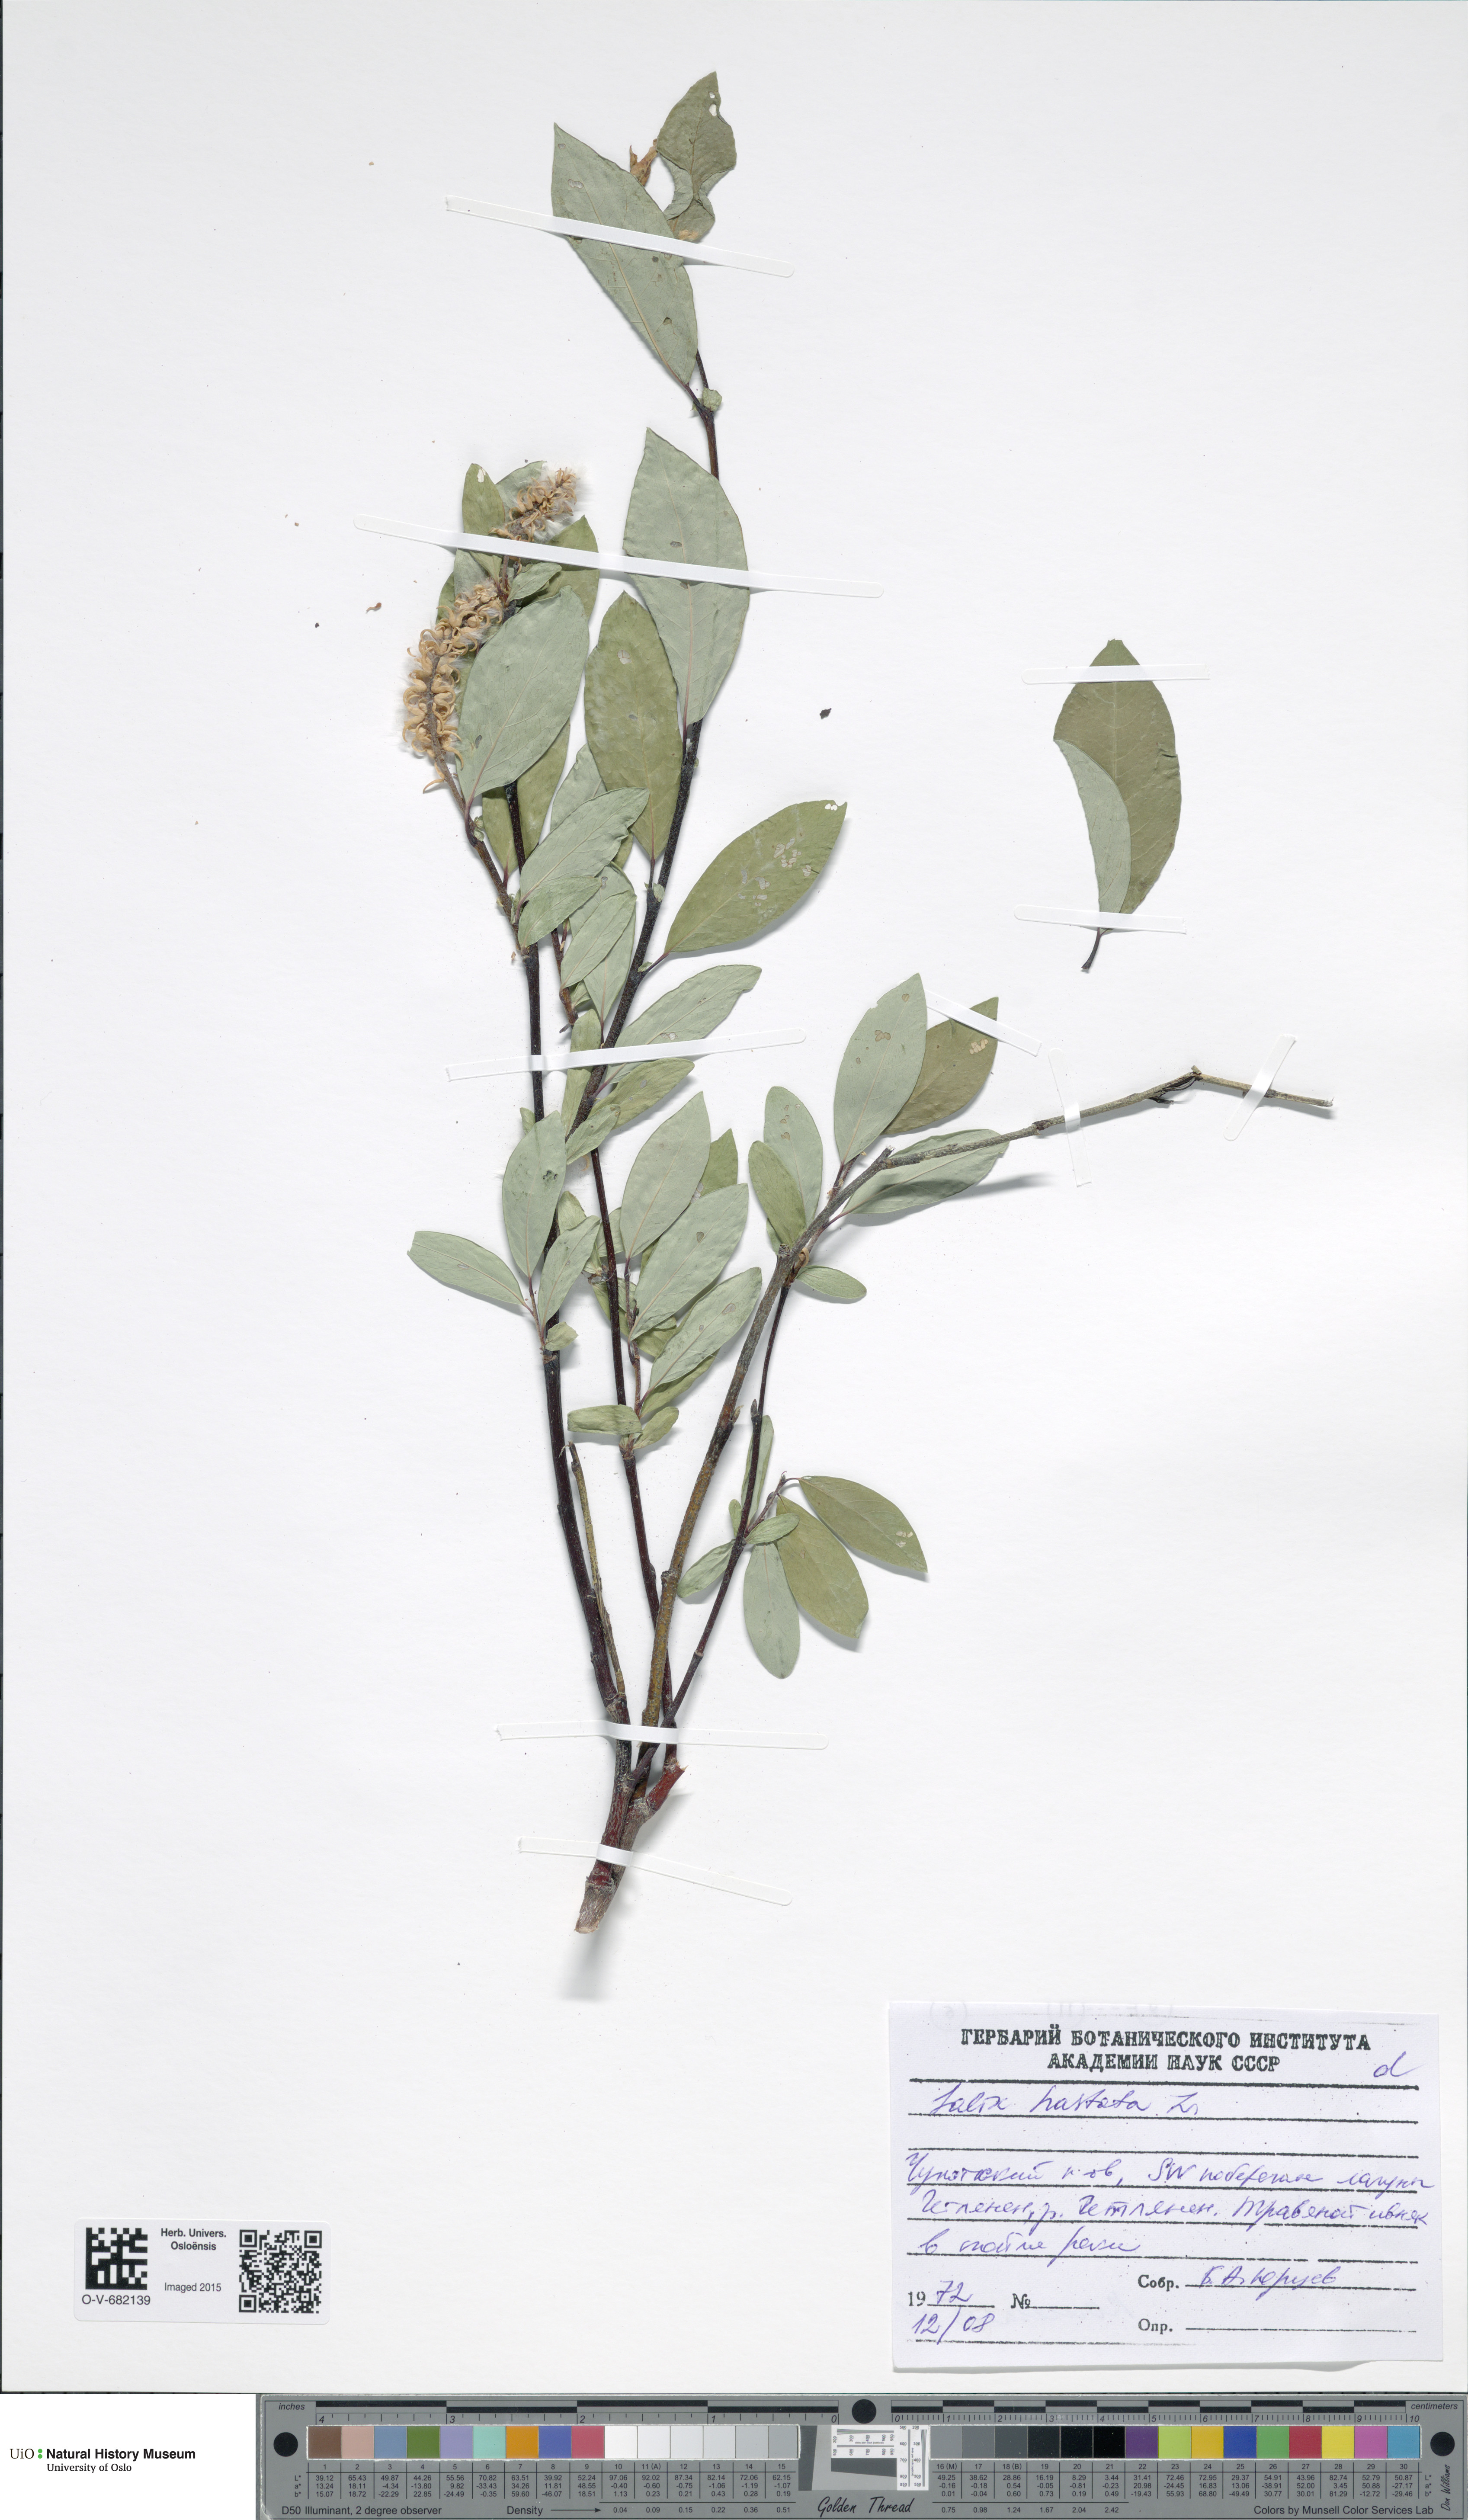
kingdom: Plantae
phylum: Tracheophyta
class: Magnoliopsida
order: Malpighiales
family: Salicaceae
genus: Salix
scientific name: Salix hastata
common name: Halberd willow
